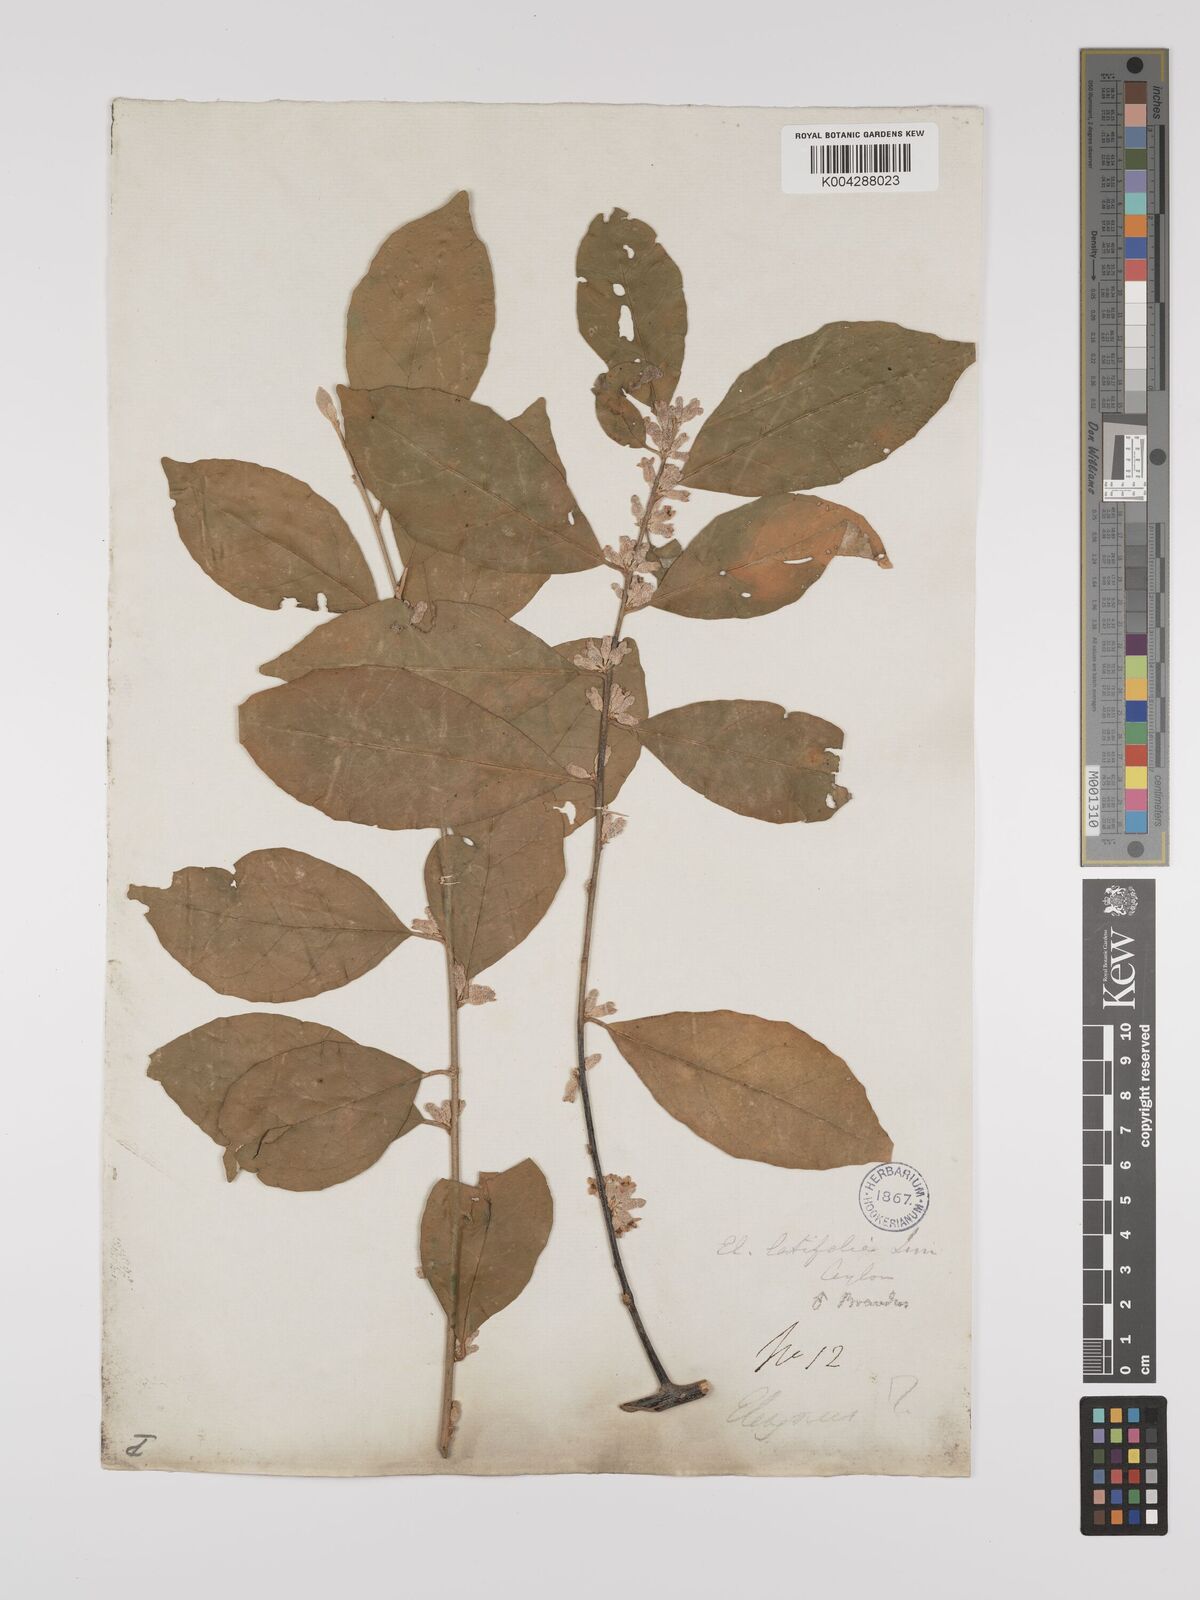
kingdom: Plantae
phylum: Tracheophyta
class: Magnoliopsida
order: Rosales
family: Elaeagnaceae
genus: Elaeagnus
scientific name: Elaeagnus latifolia
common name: Oleaster
